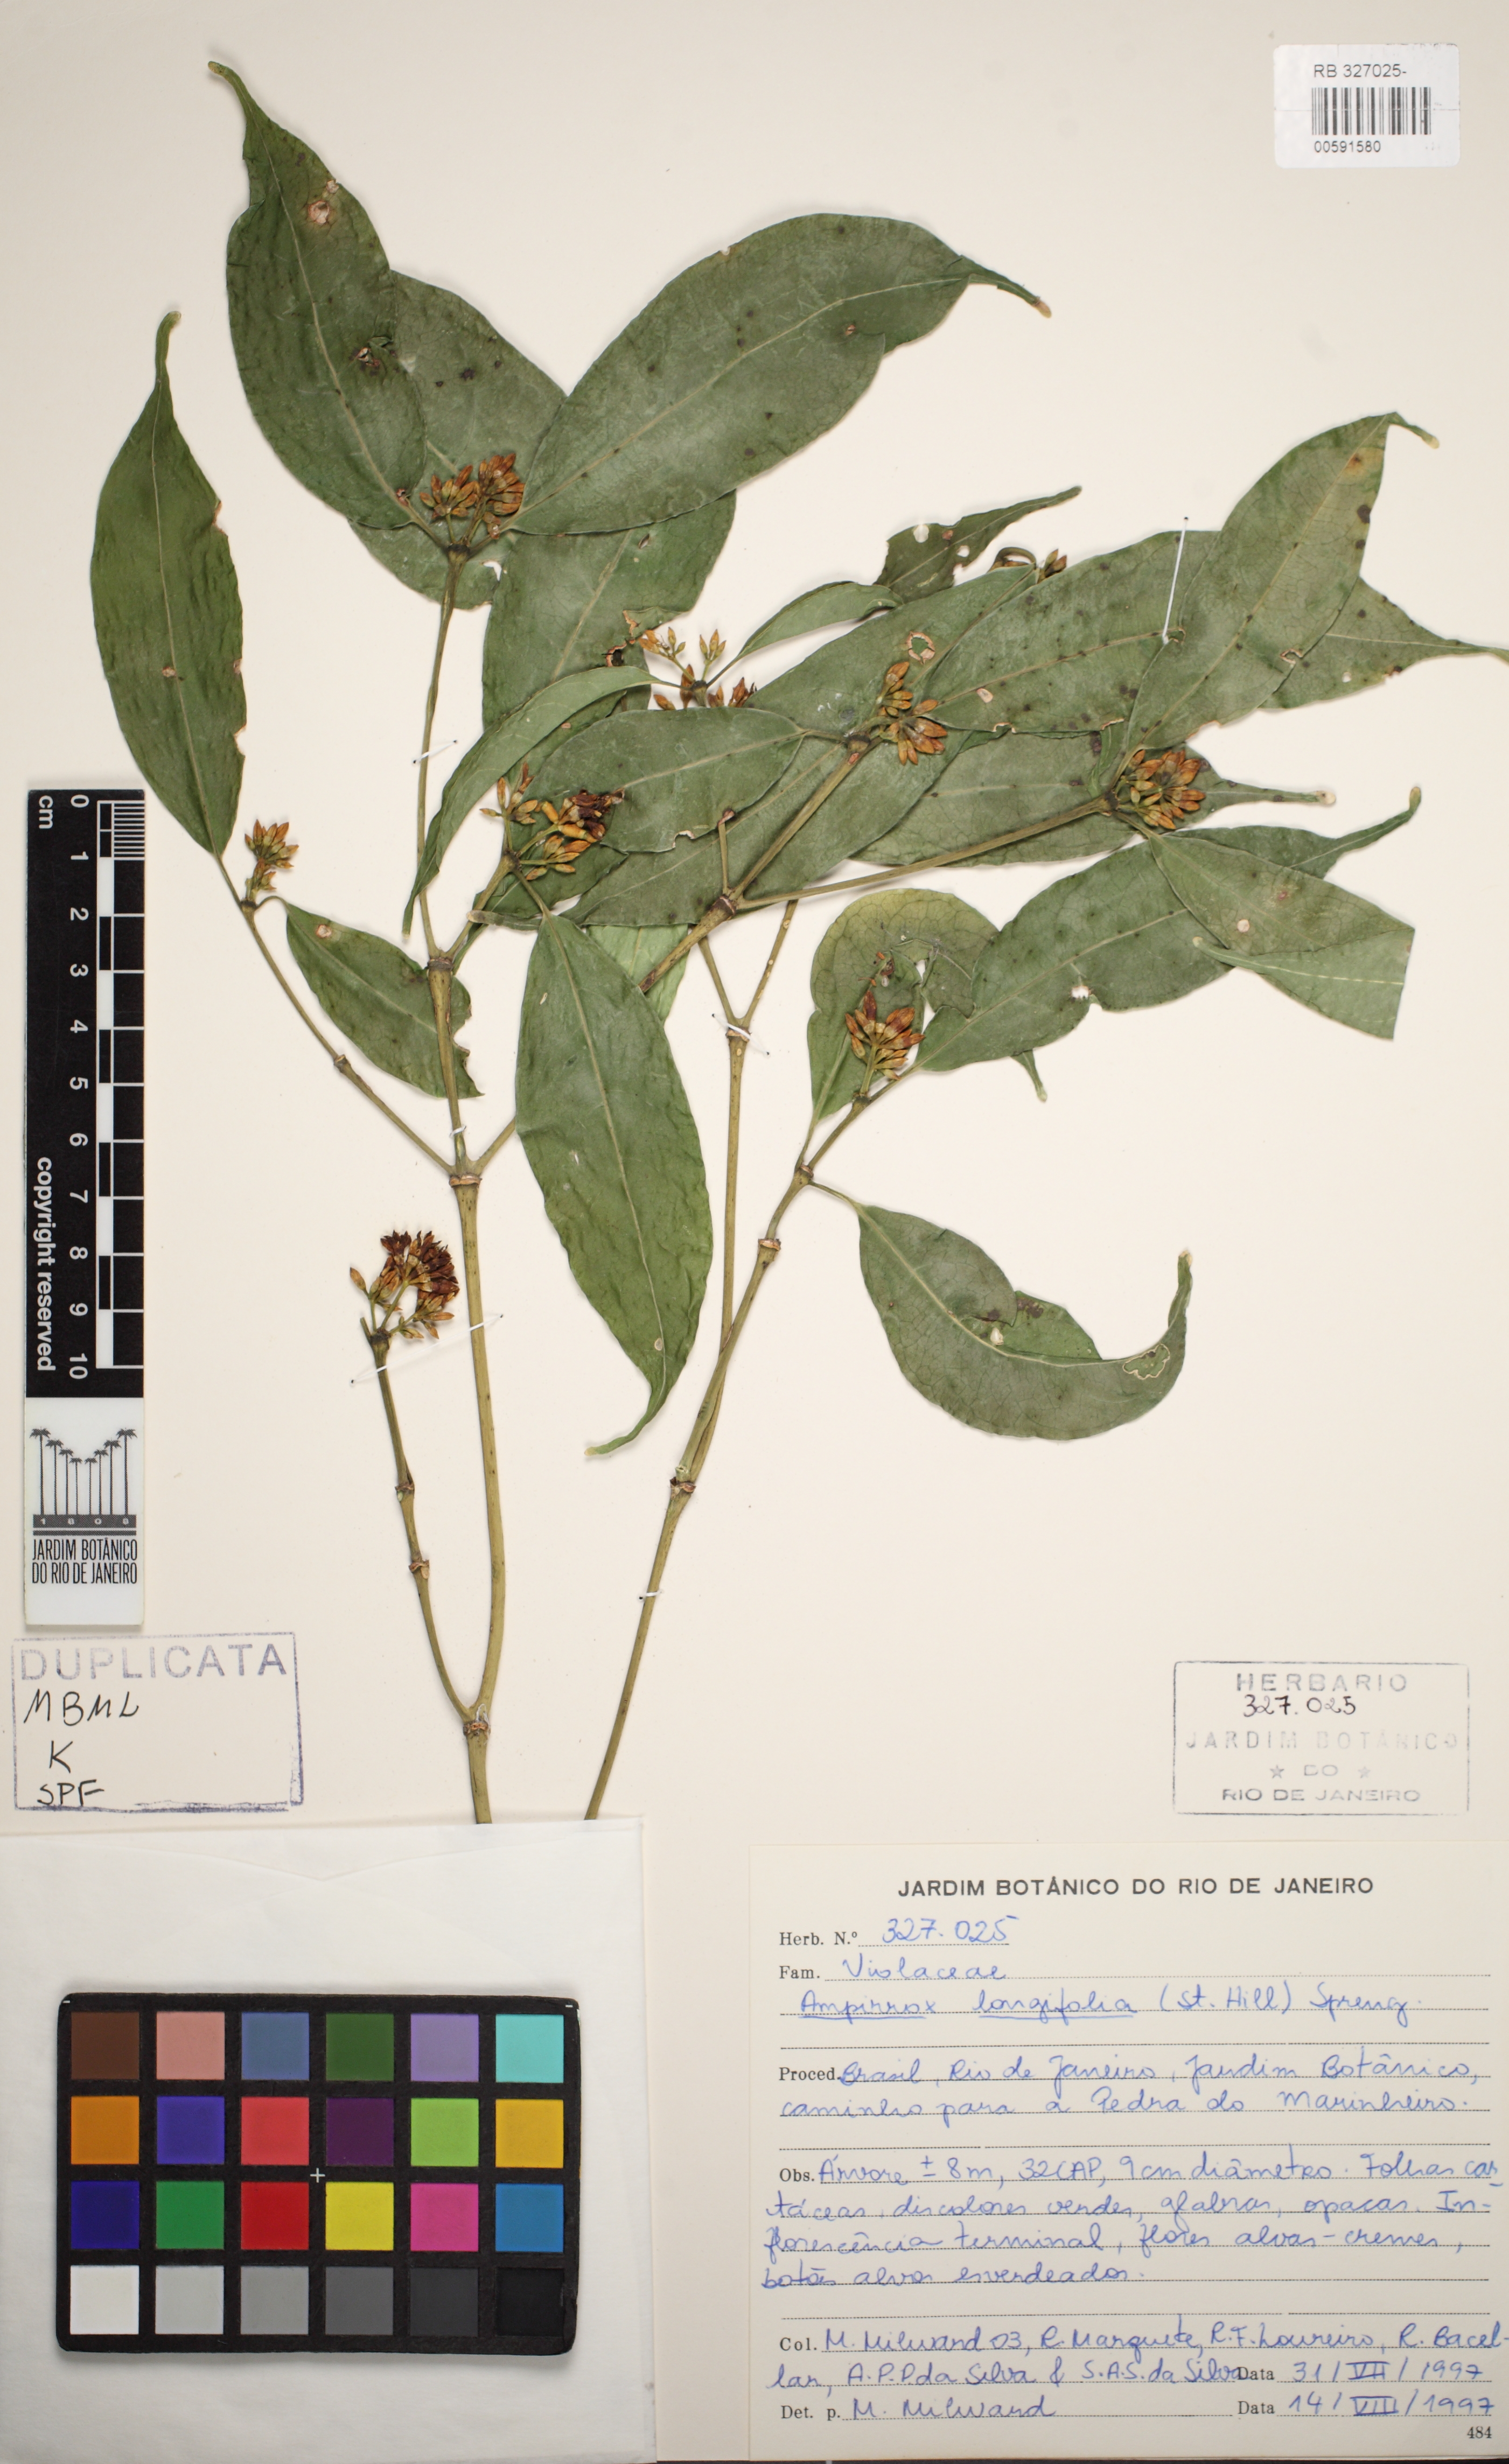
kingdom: Plantae
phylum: Tracheophyta
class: Magnoliopsida
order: Malpighiales
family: Violaceae
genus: Amphirrhox
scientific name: Amphirrhox longifolia
